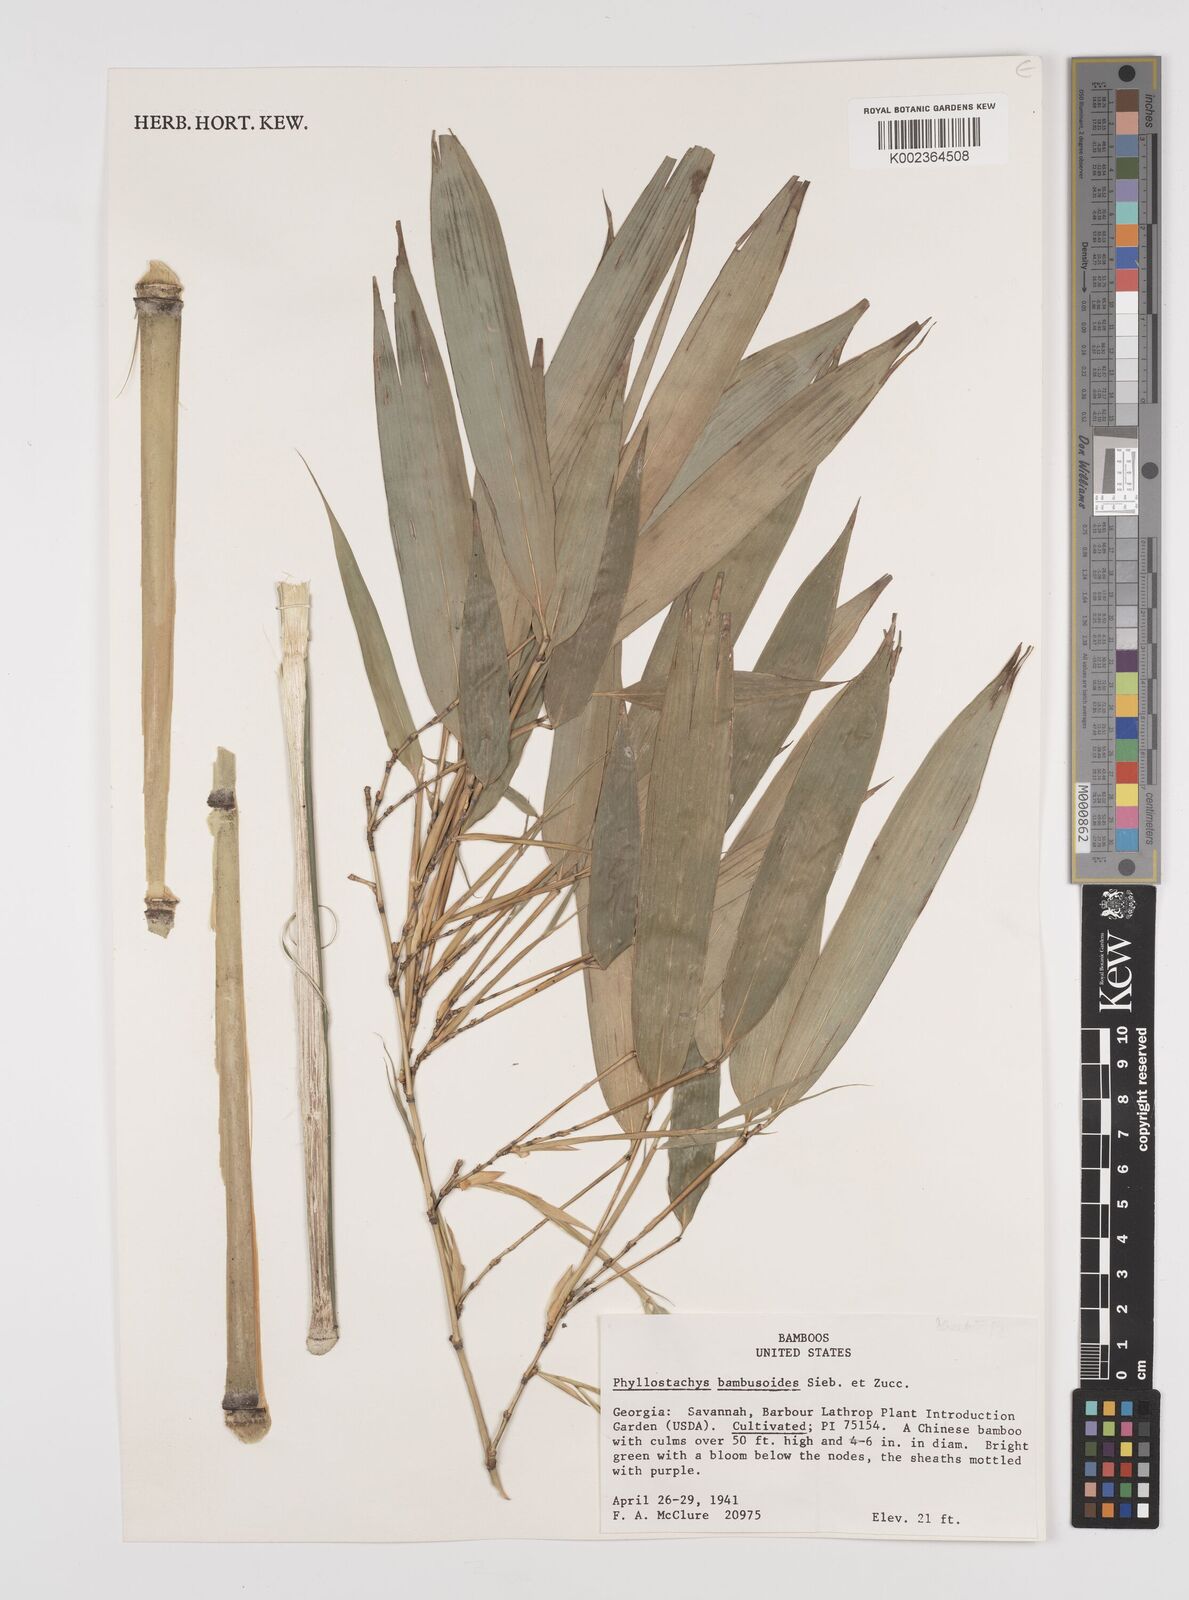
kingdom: Plantae
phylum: Tracheophyta
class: Liliopsida
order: Poales
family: Poaceae
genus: Phyllostachys
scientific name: Phyllostachys reticulata
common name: Bamboo
